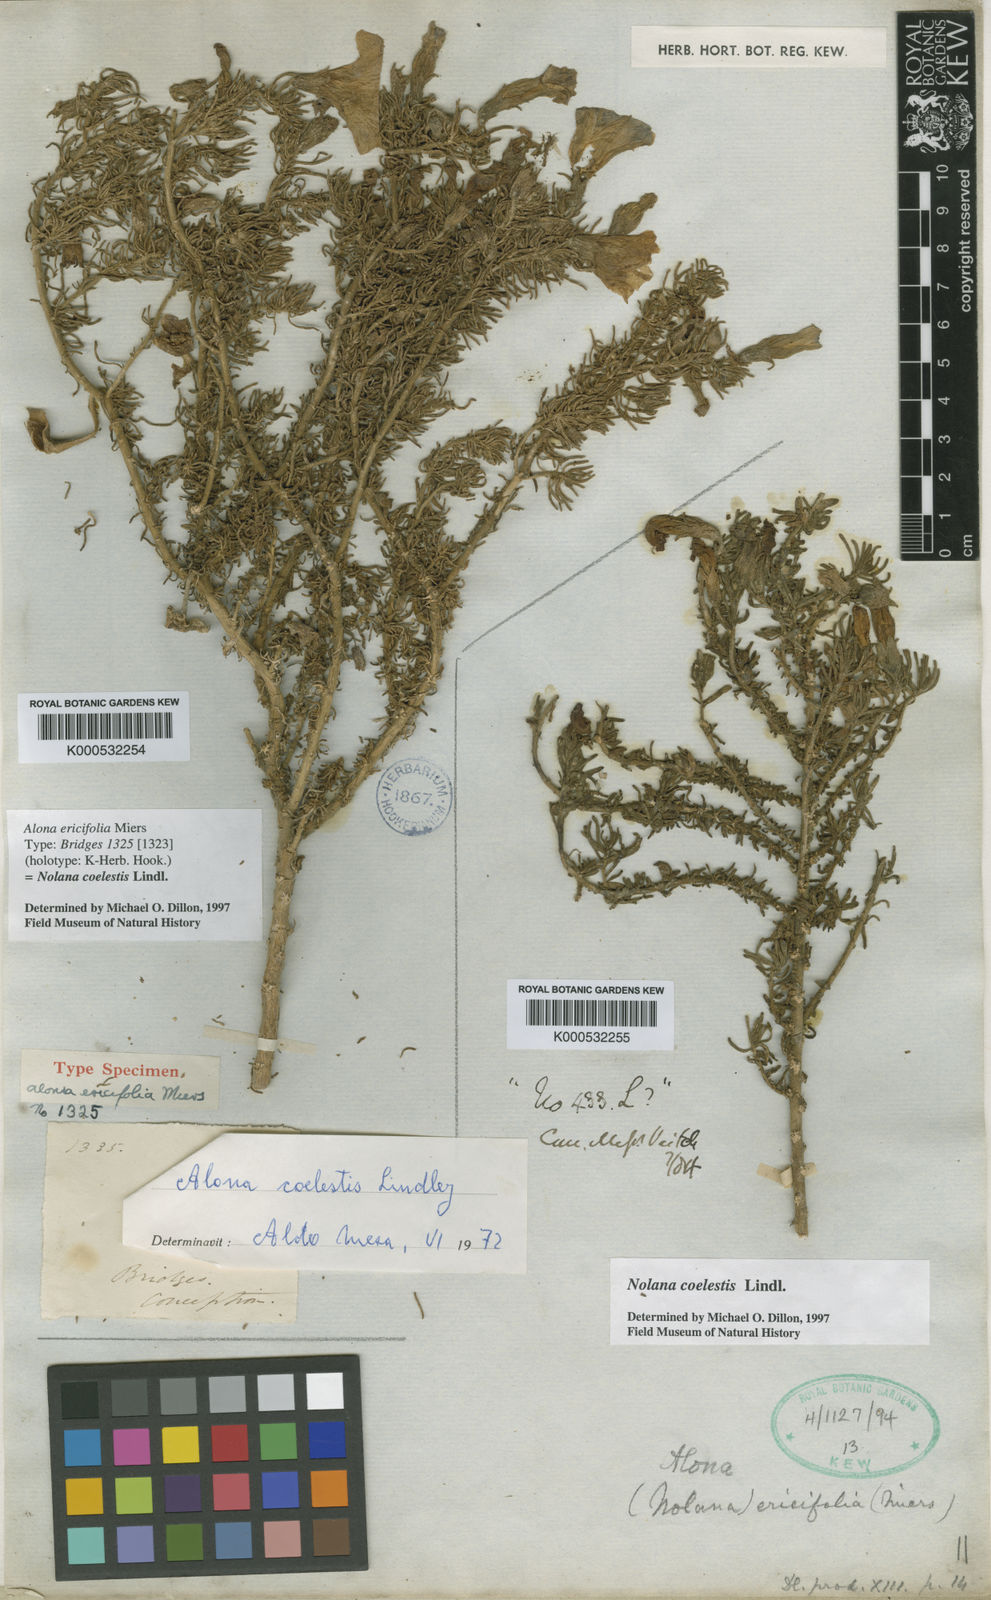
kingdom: Plantae
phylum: Tracheophyta
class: Magnoliopsida
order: Solanales
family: Solanaceae
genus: Nolana
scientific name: Nolana
